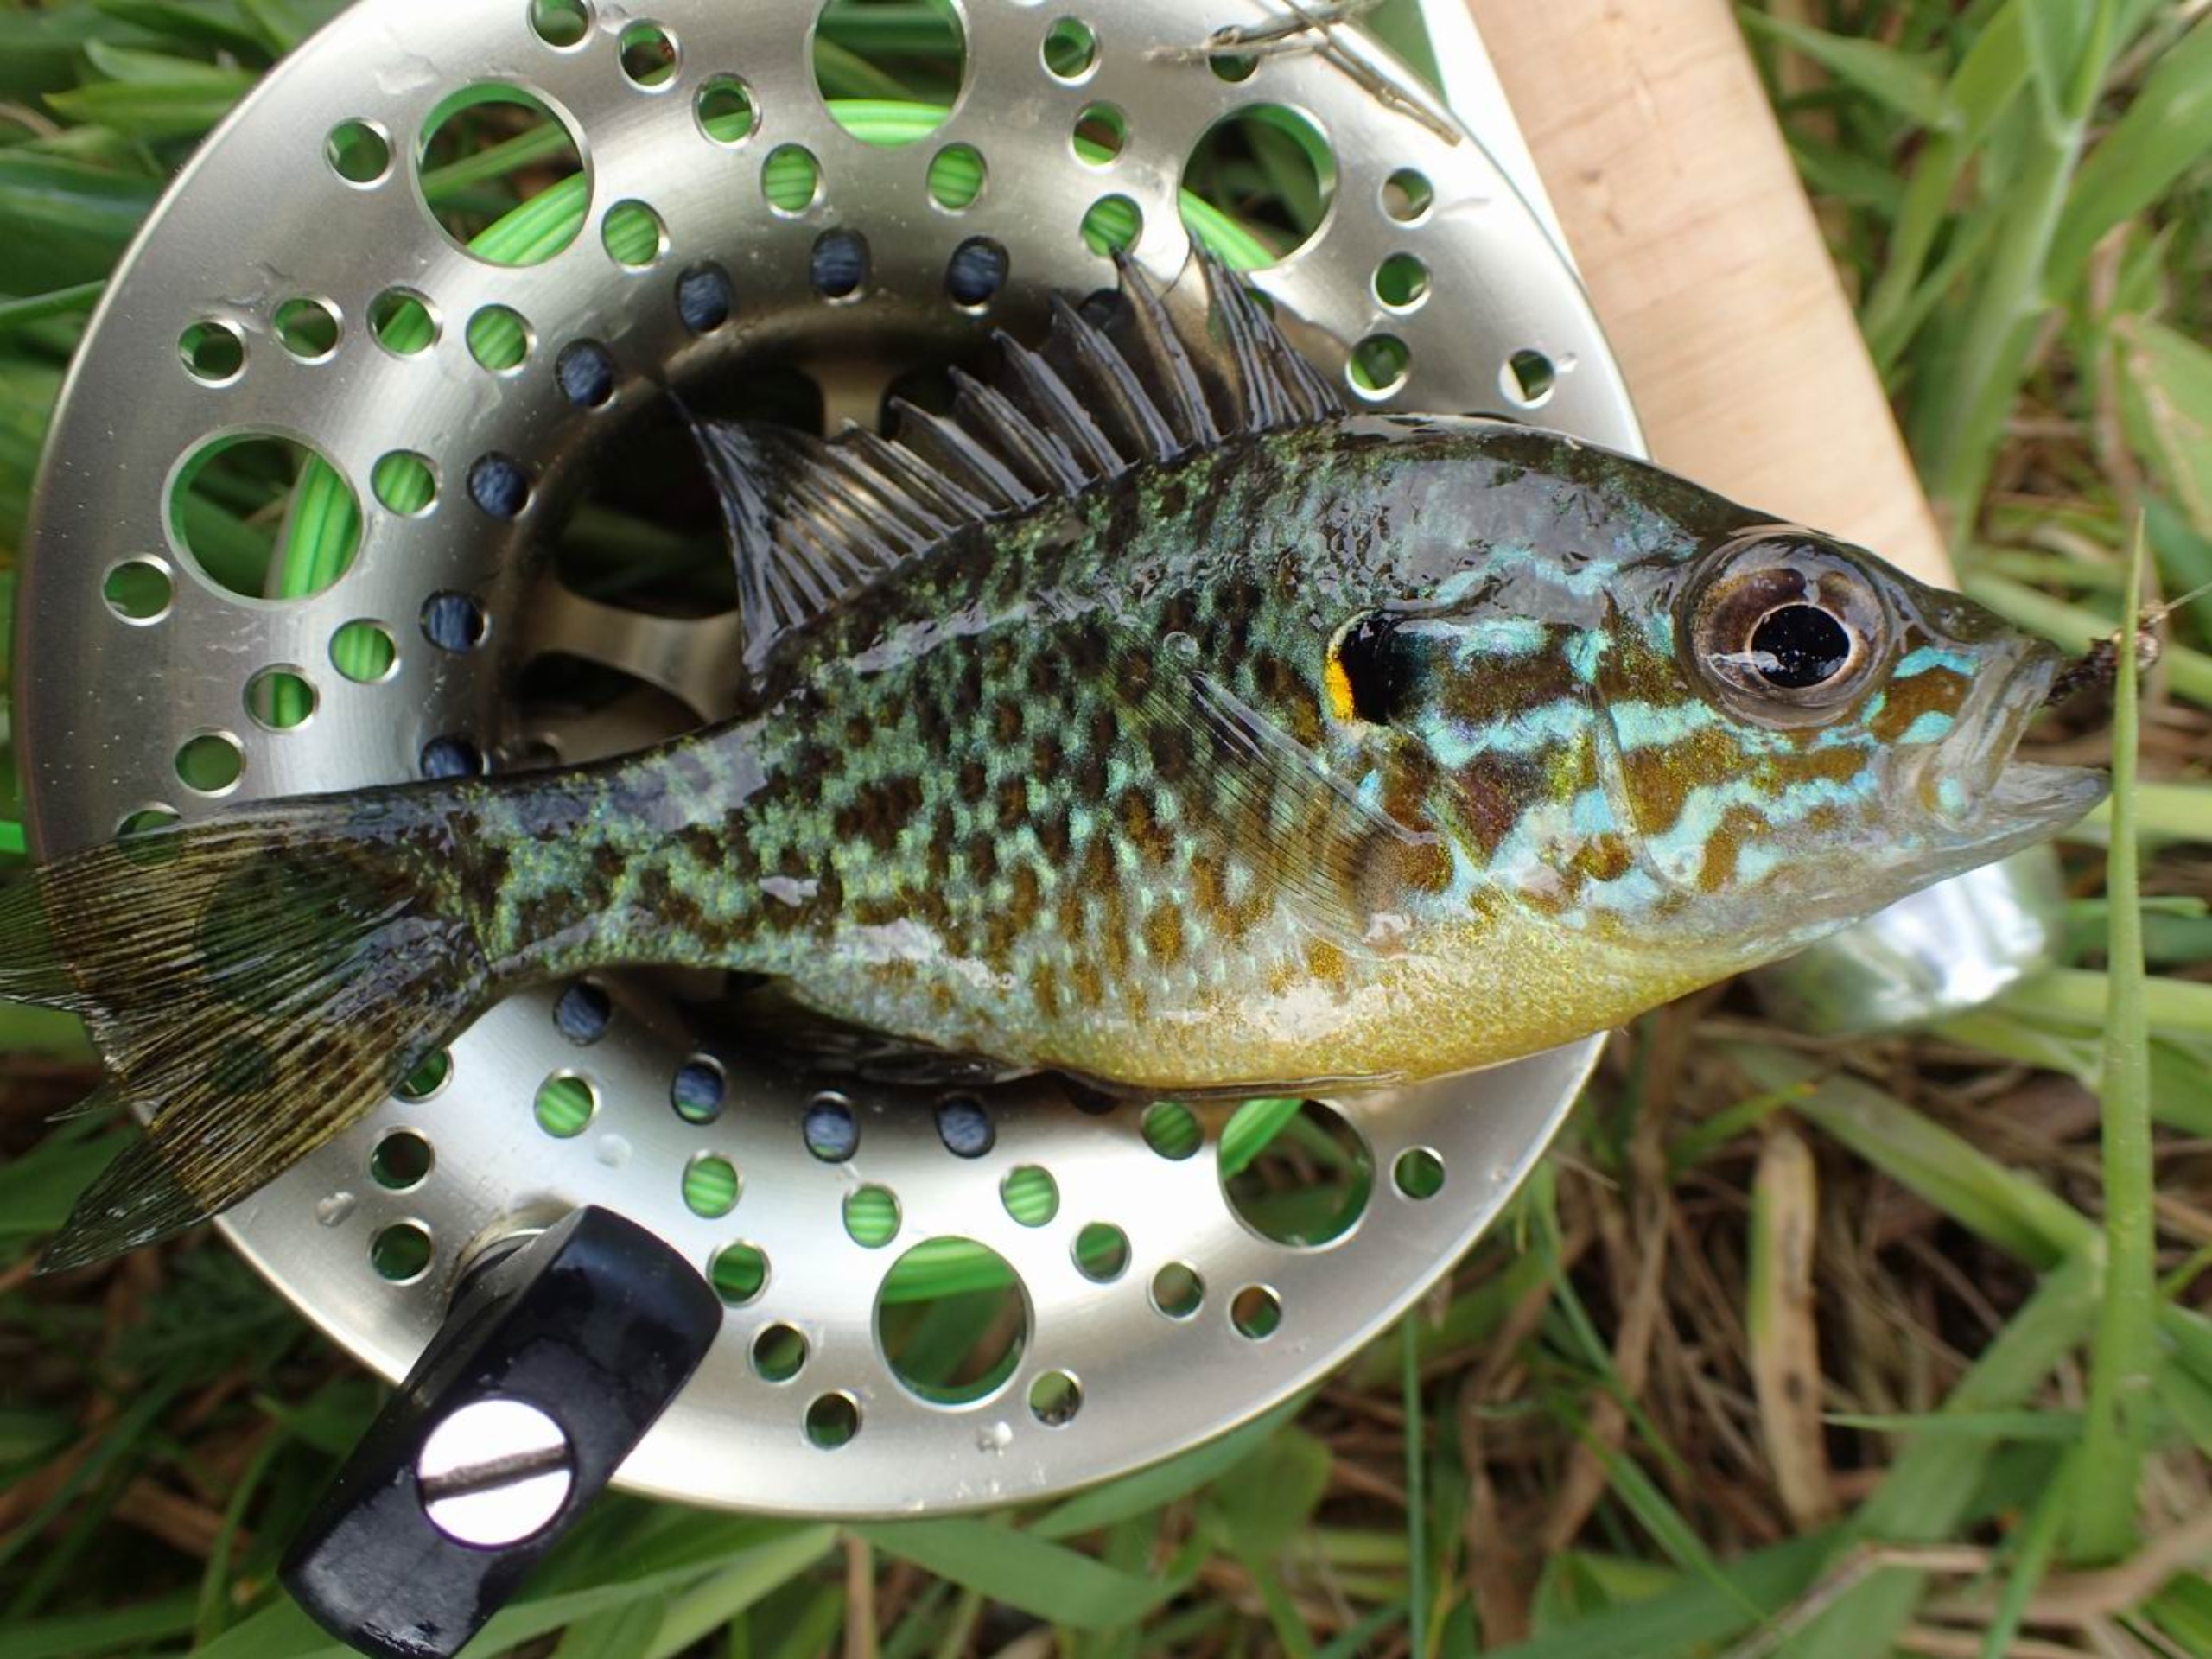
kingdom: Animalia
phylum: Chordata
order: Perciformes
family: Centrarchidae
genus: Lepomis
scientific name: Lepomis gibbosus
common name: Almindelig solaborre
